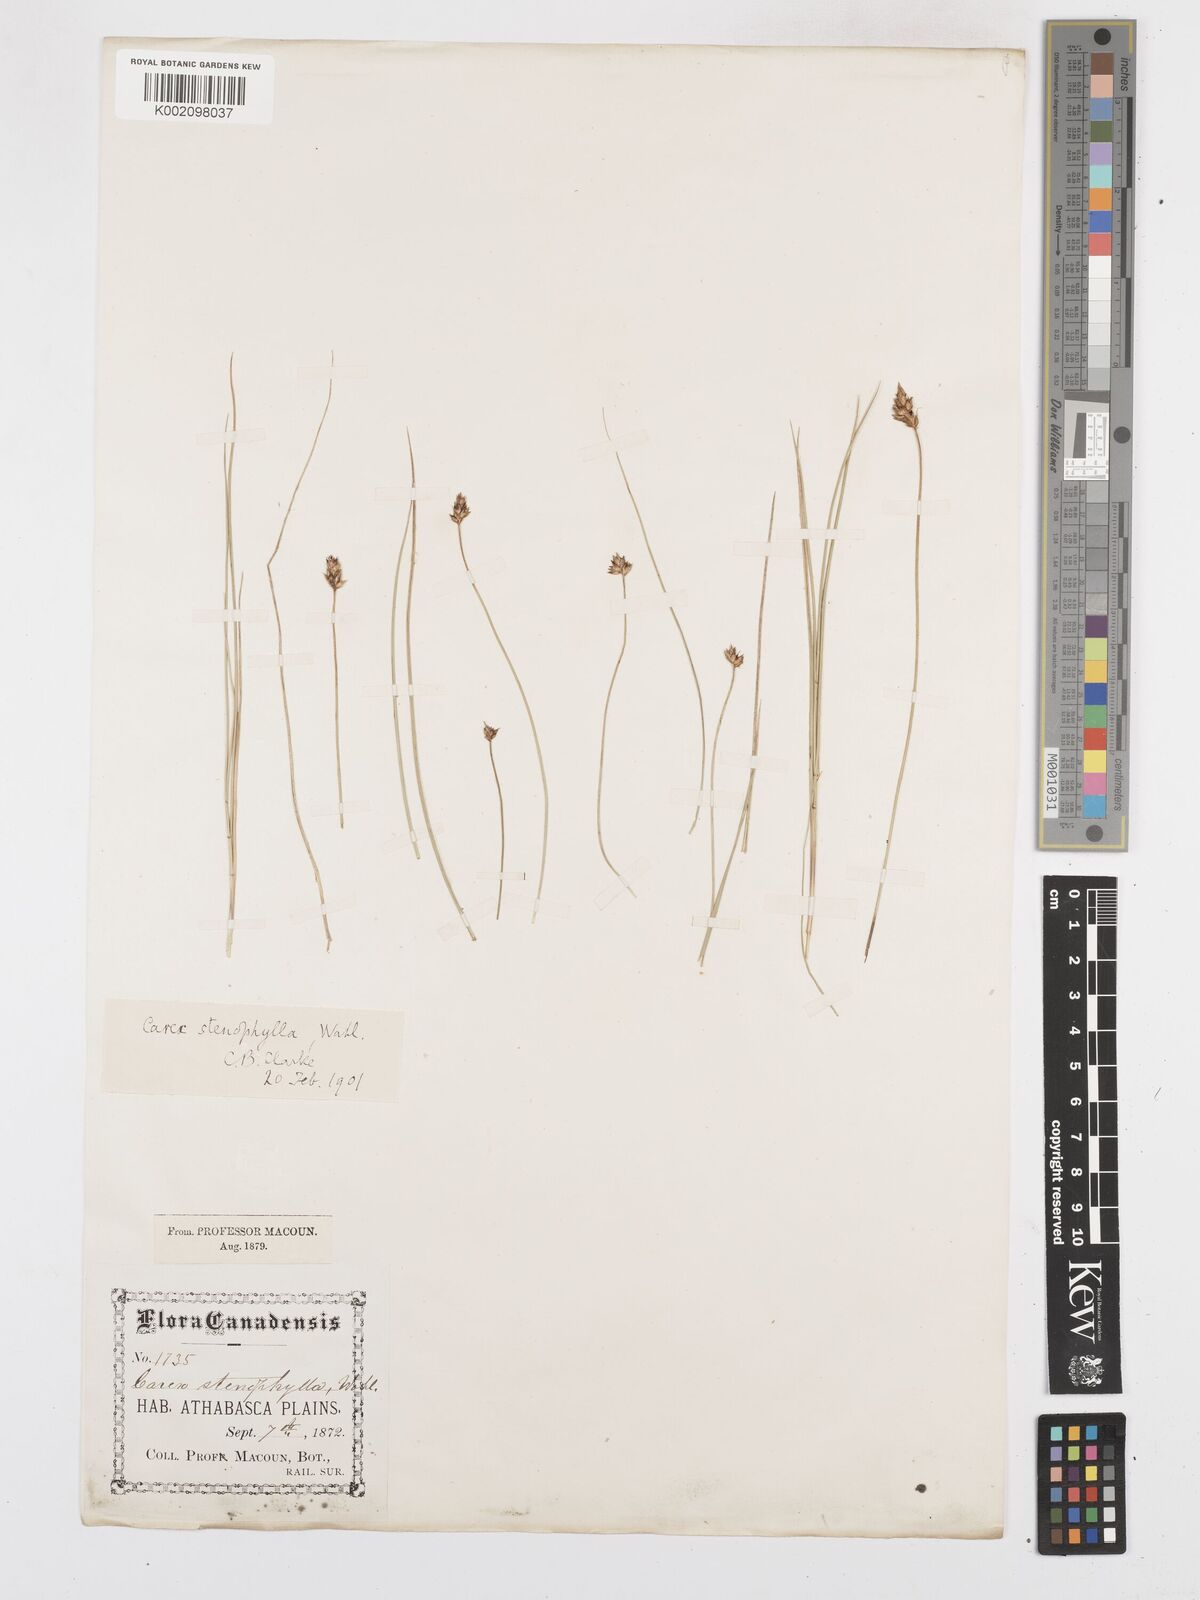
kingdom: Plantae
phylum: Tracheophyta
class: Liliopsida
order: Poales
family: Cyperaceae
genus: Carex
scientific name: Carex duriuscula
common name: Involute-leaved sedge
